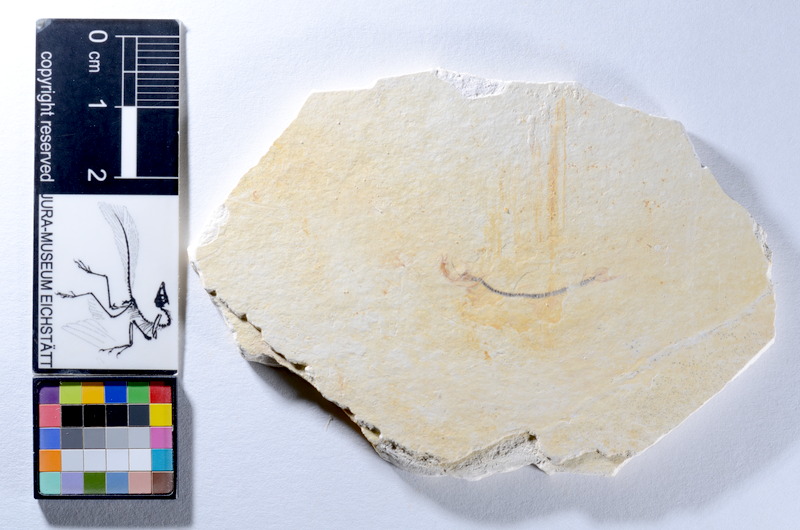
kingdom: Animalia
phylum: Chordata
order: Salmoniformes
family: Orthogonikleithridae
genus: Orthogonikleithrus
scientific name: Orthogonikleithrus hoelli
